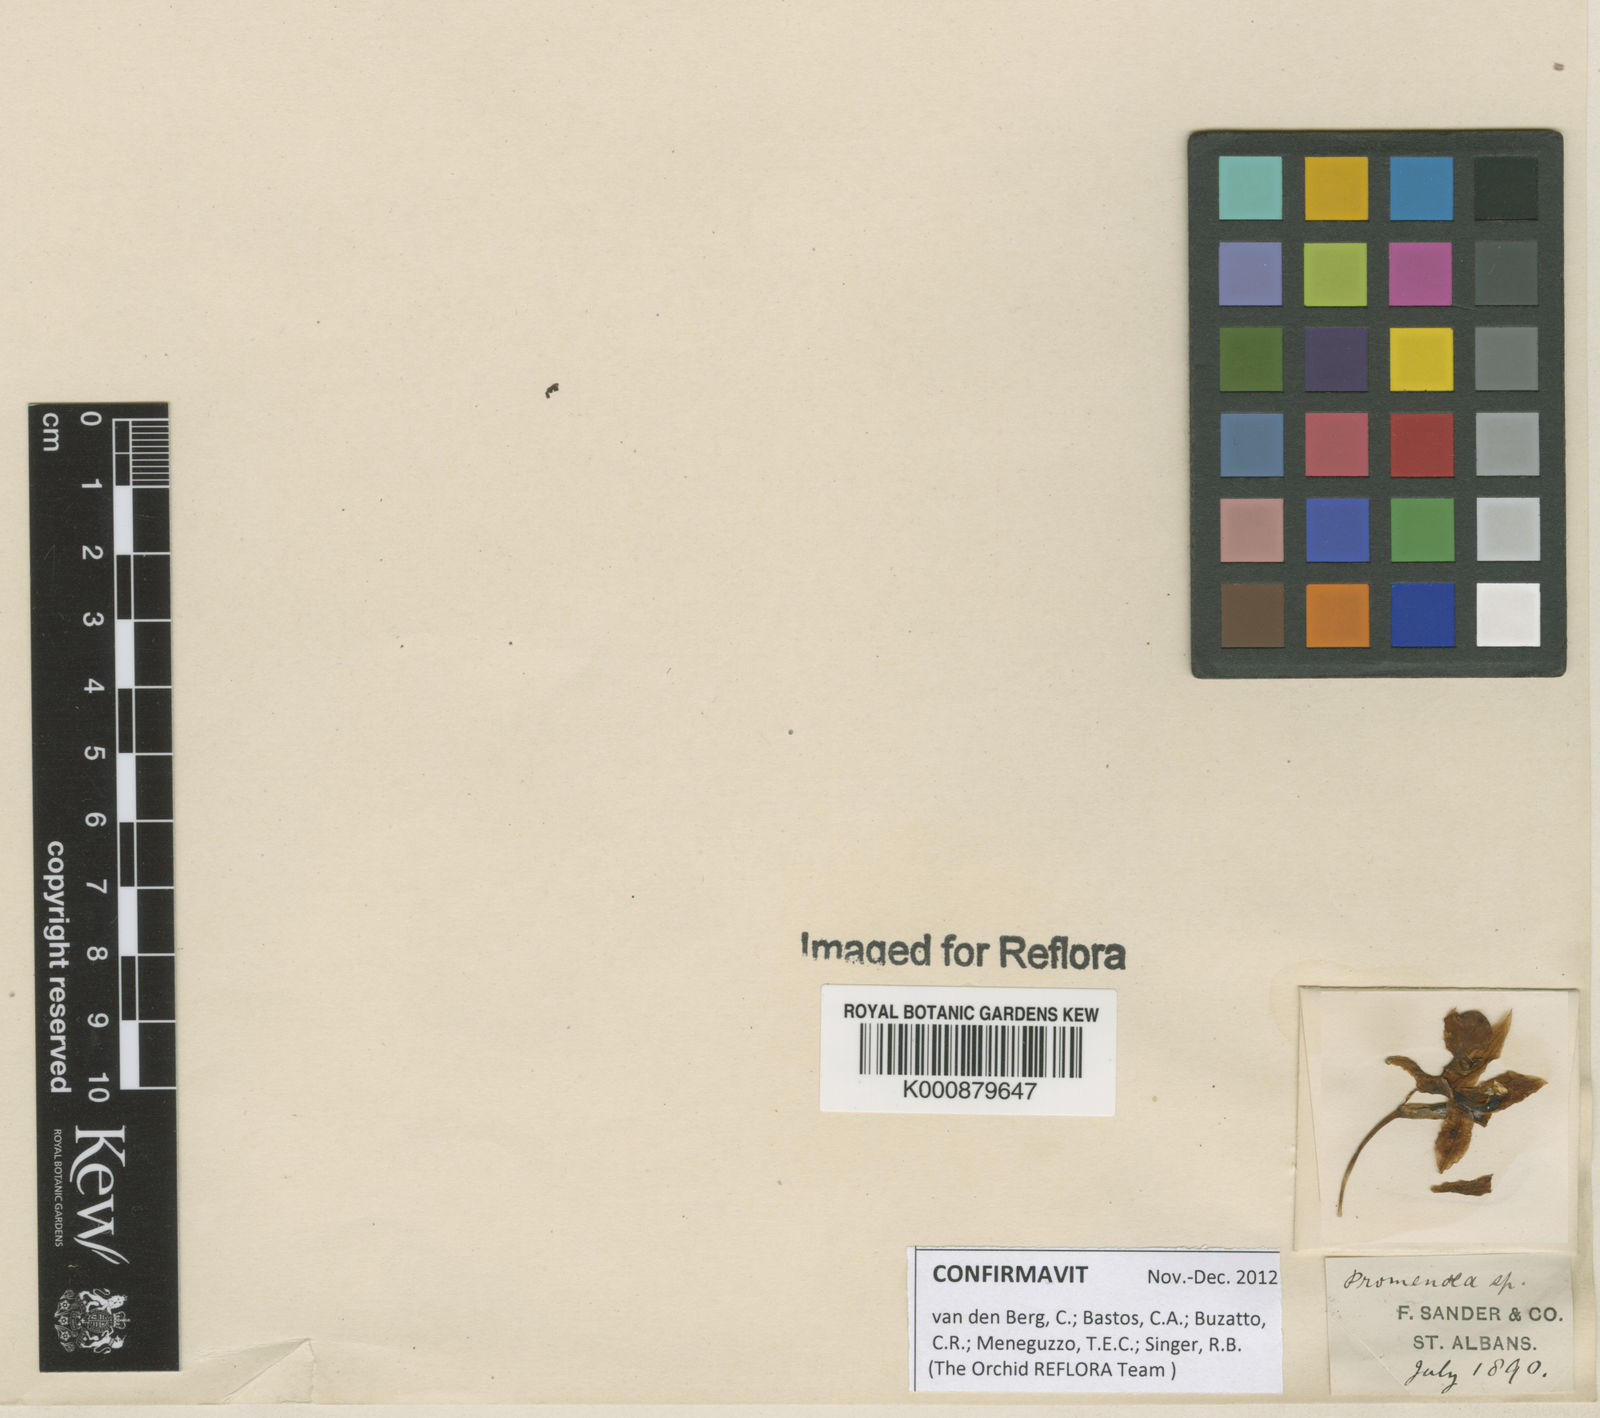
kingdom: Plantae
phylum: Tracheophyta
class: Liliopsida
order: Asparagales
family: Orchidaceae
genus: Promenaea
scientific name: Promenaea
